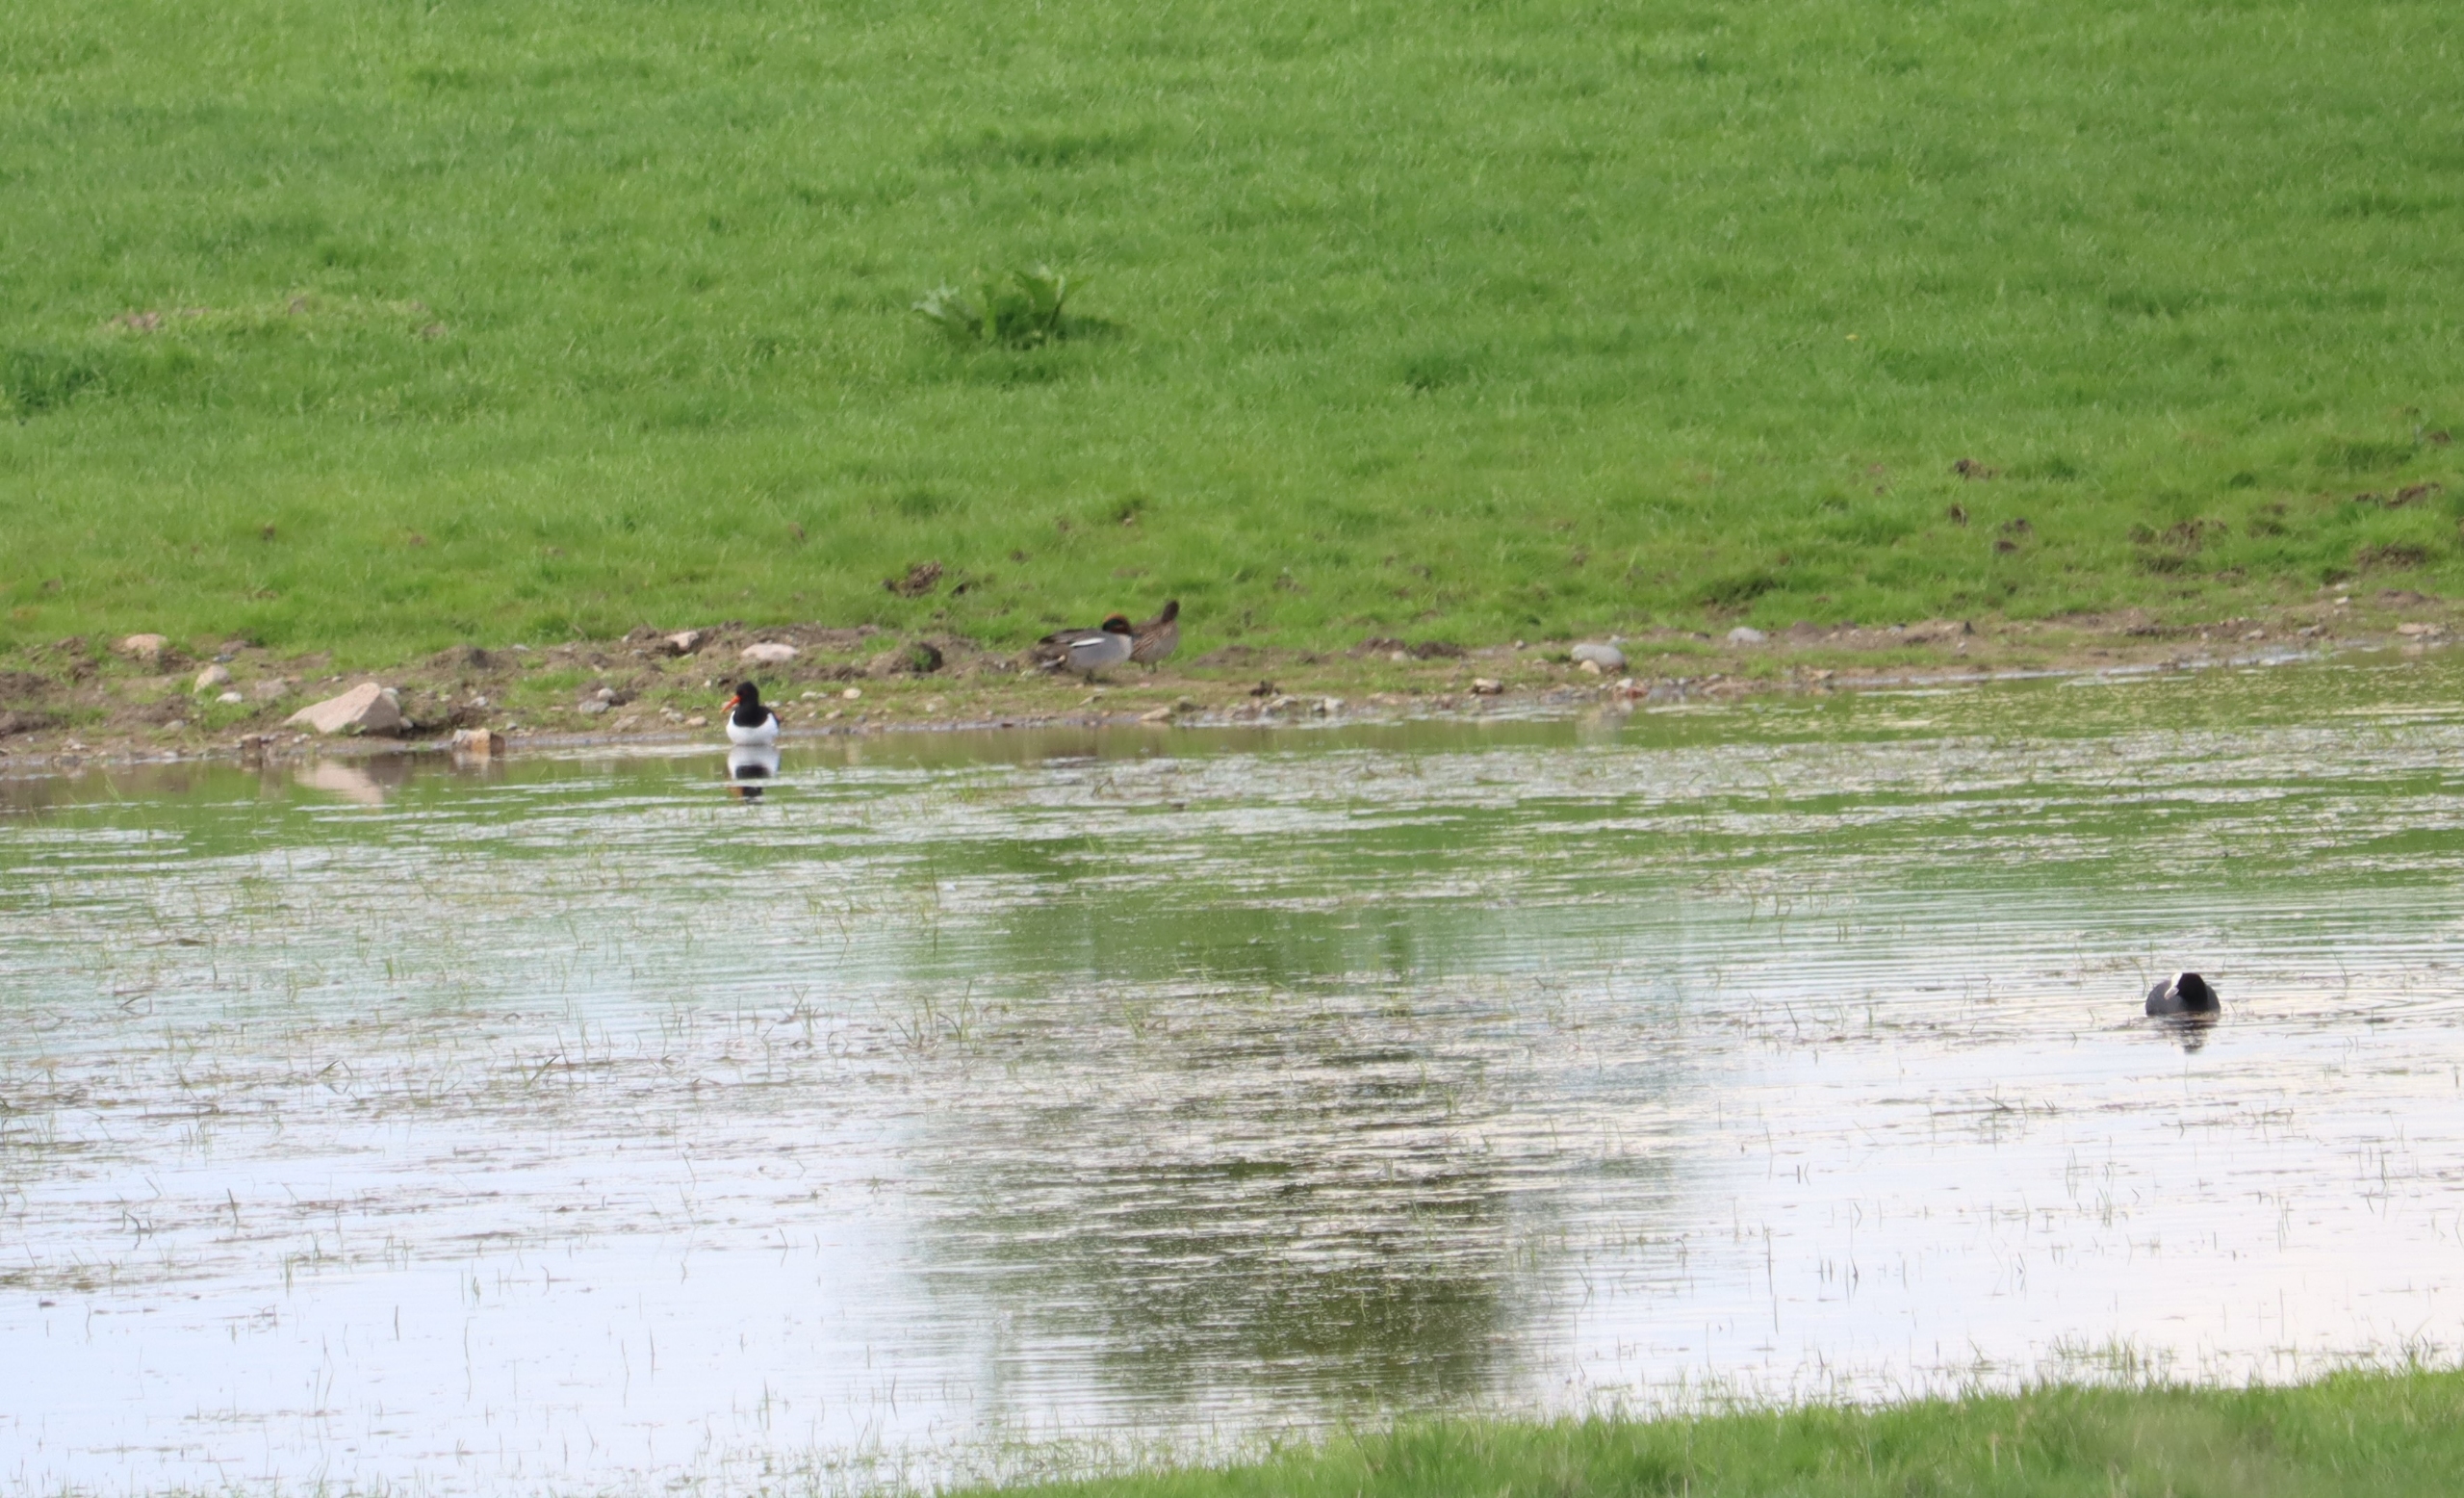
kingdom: Animalia
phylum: Chordata
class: Aves
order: Anseriformes
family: Anatidae
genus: Anas
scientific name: Anas crecca
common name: Krikand
